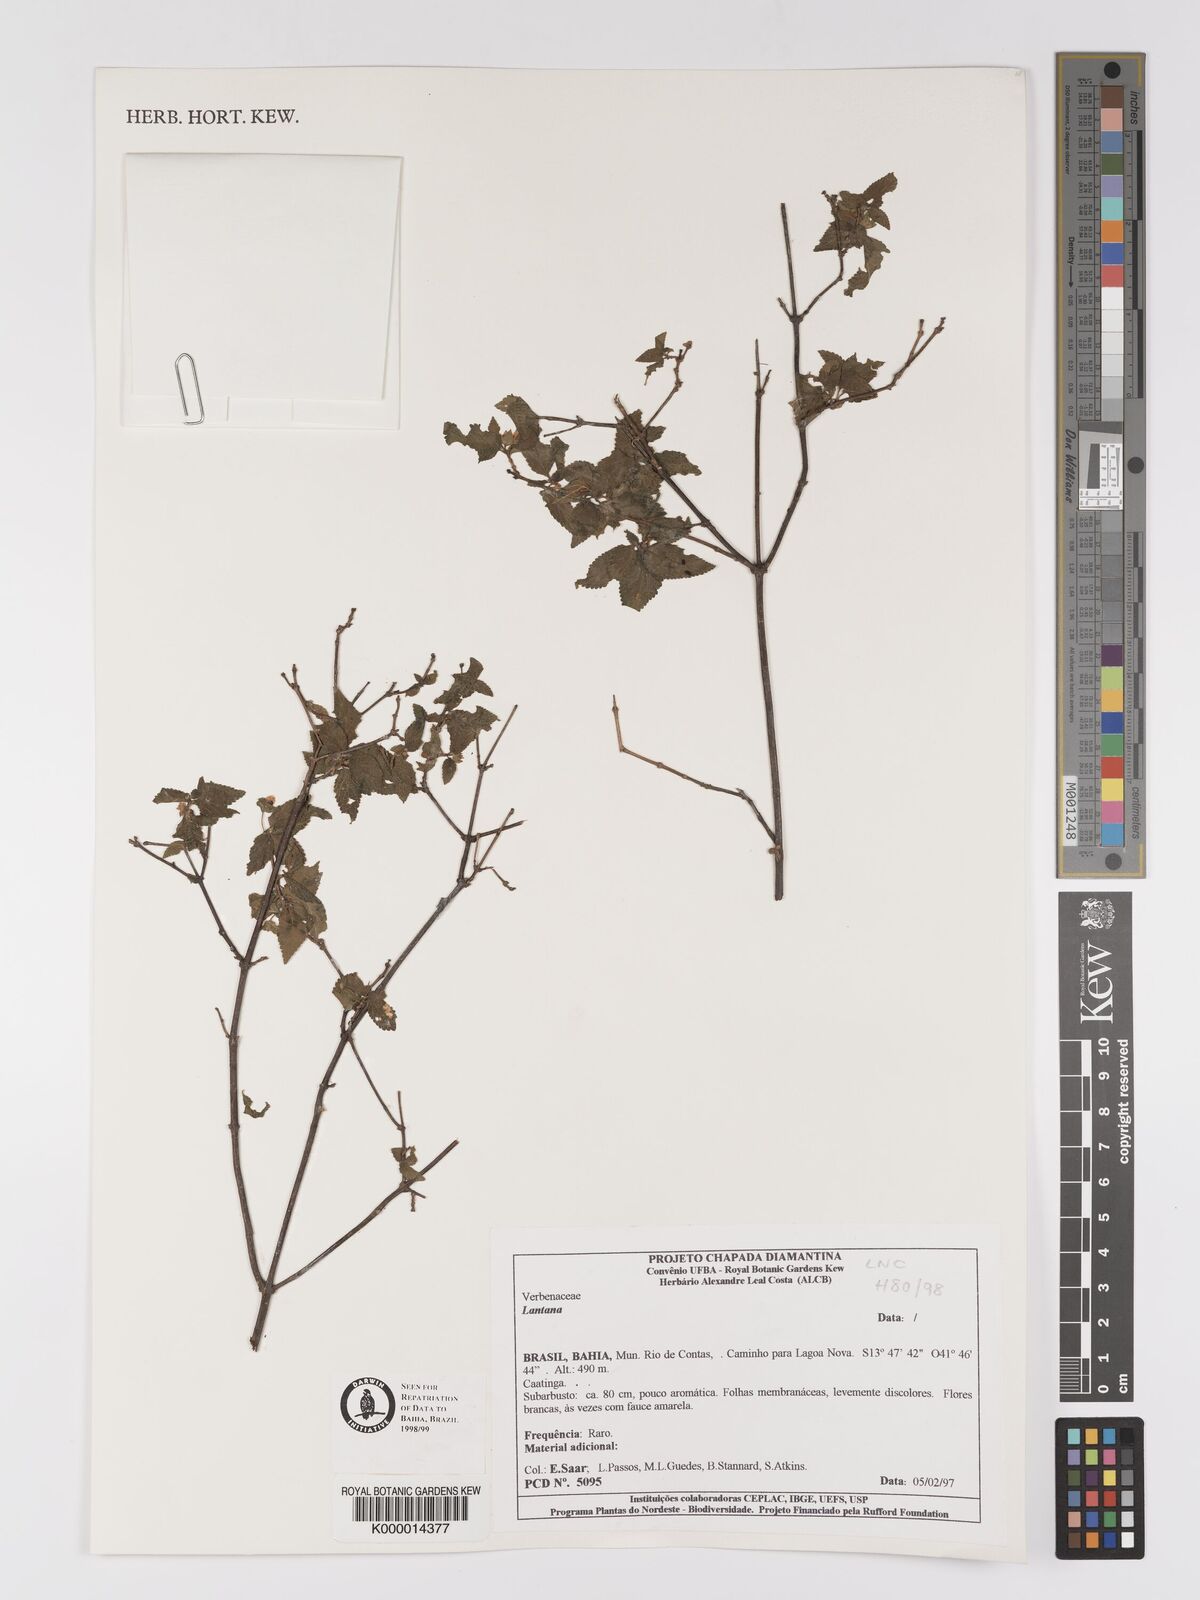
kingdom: Plantae
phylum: Tracheophyta
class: Magnoliopsida
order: Lamiales
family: Verbenaceae
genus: Lantana
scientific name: Lantana
